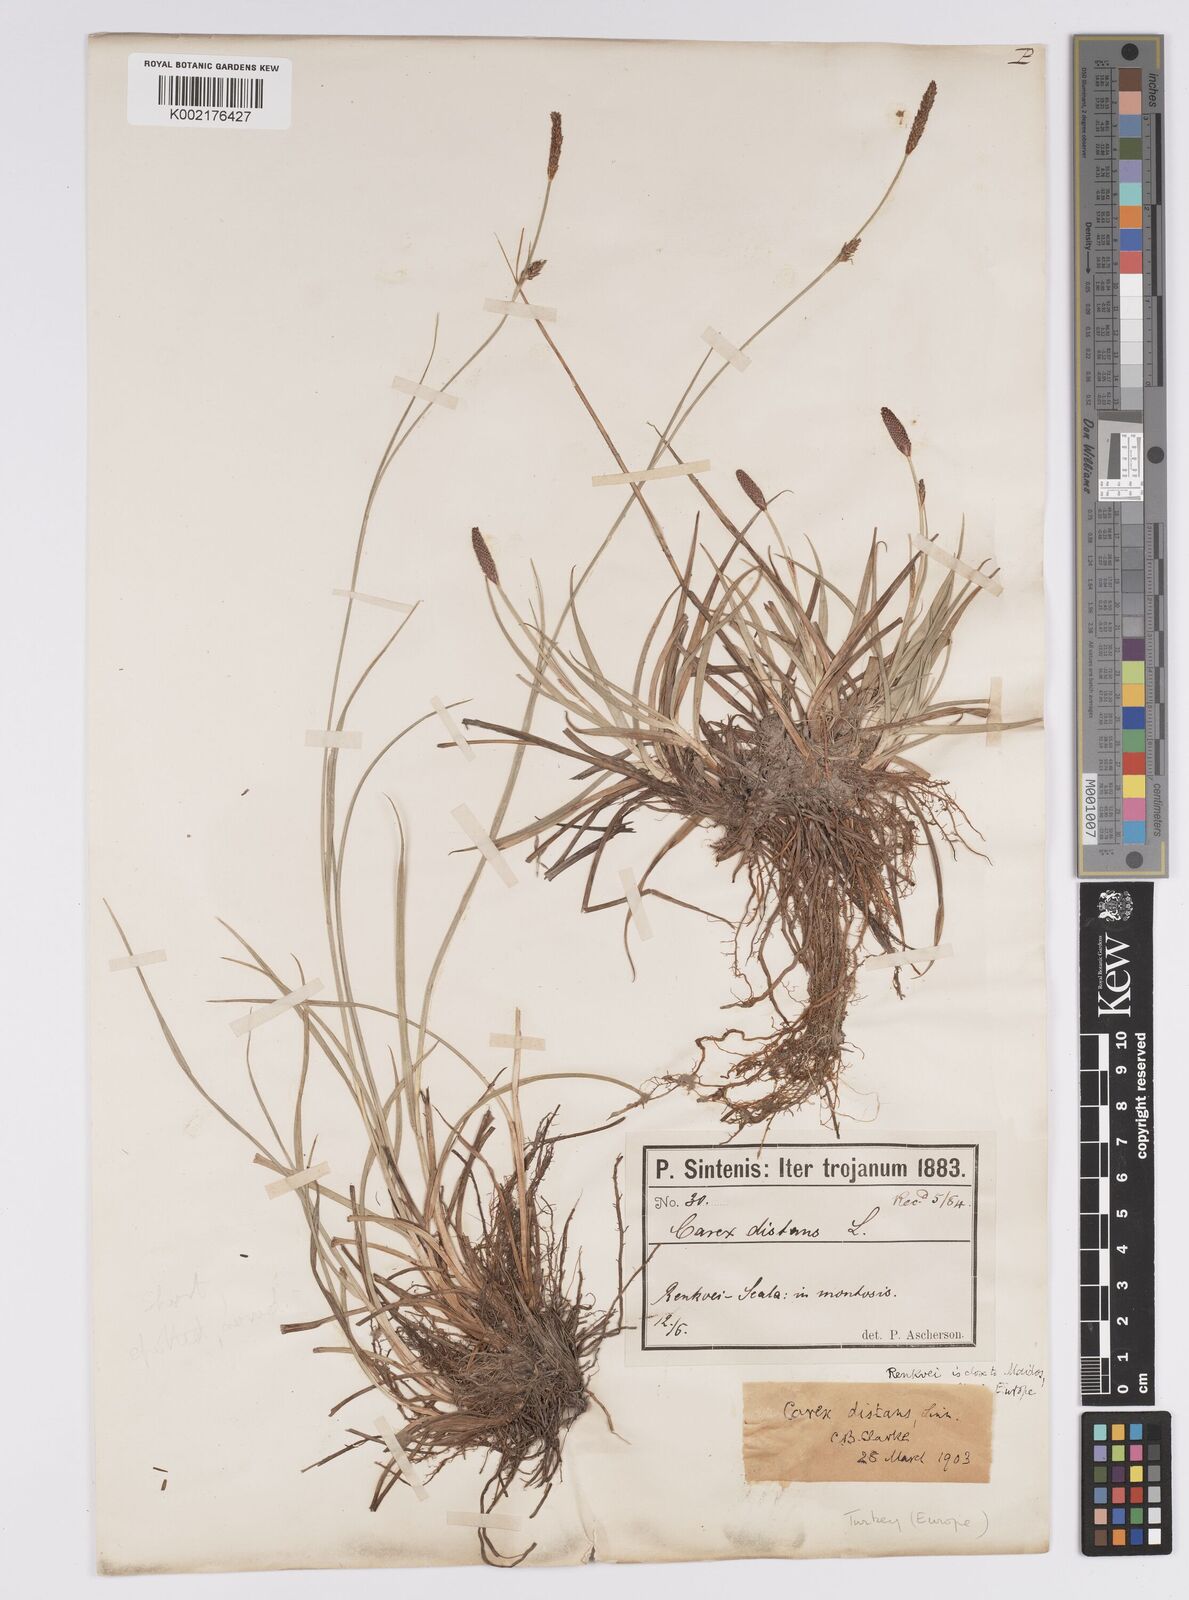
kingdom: Plantae
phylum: Tracheophyta
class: Liliopsida
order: Poales
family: Cyperaceae
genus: Carex
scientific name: Carex distans
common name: Distant sedge
